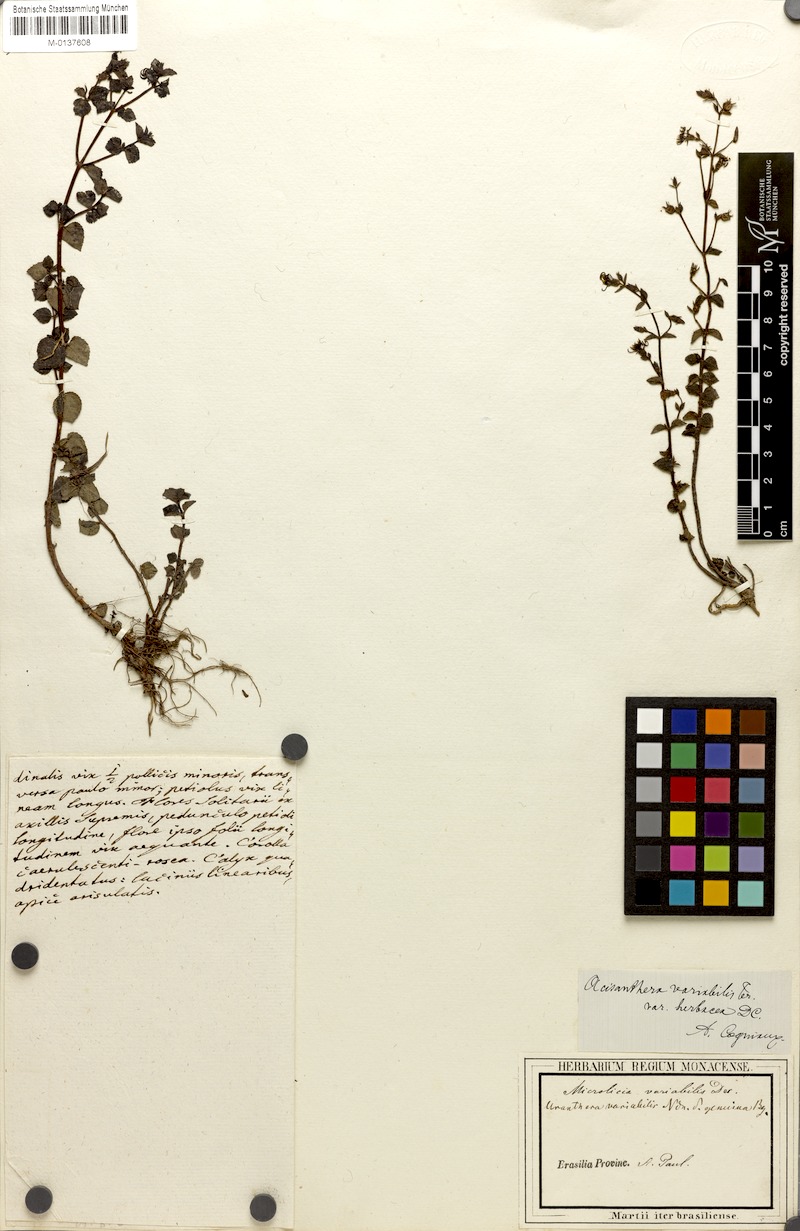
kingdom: Plantae
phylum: Tracheophyta
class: Magnoliopsida
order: Myrtales
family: Melastomataceae
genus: Acisanthera
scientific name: Acisanthera variabilis
